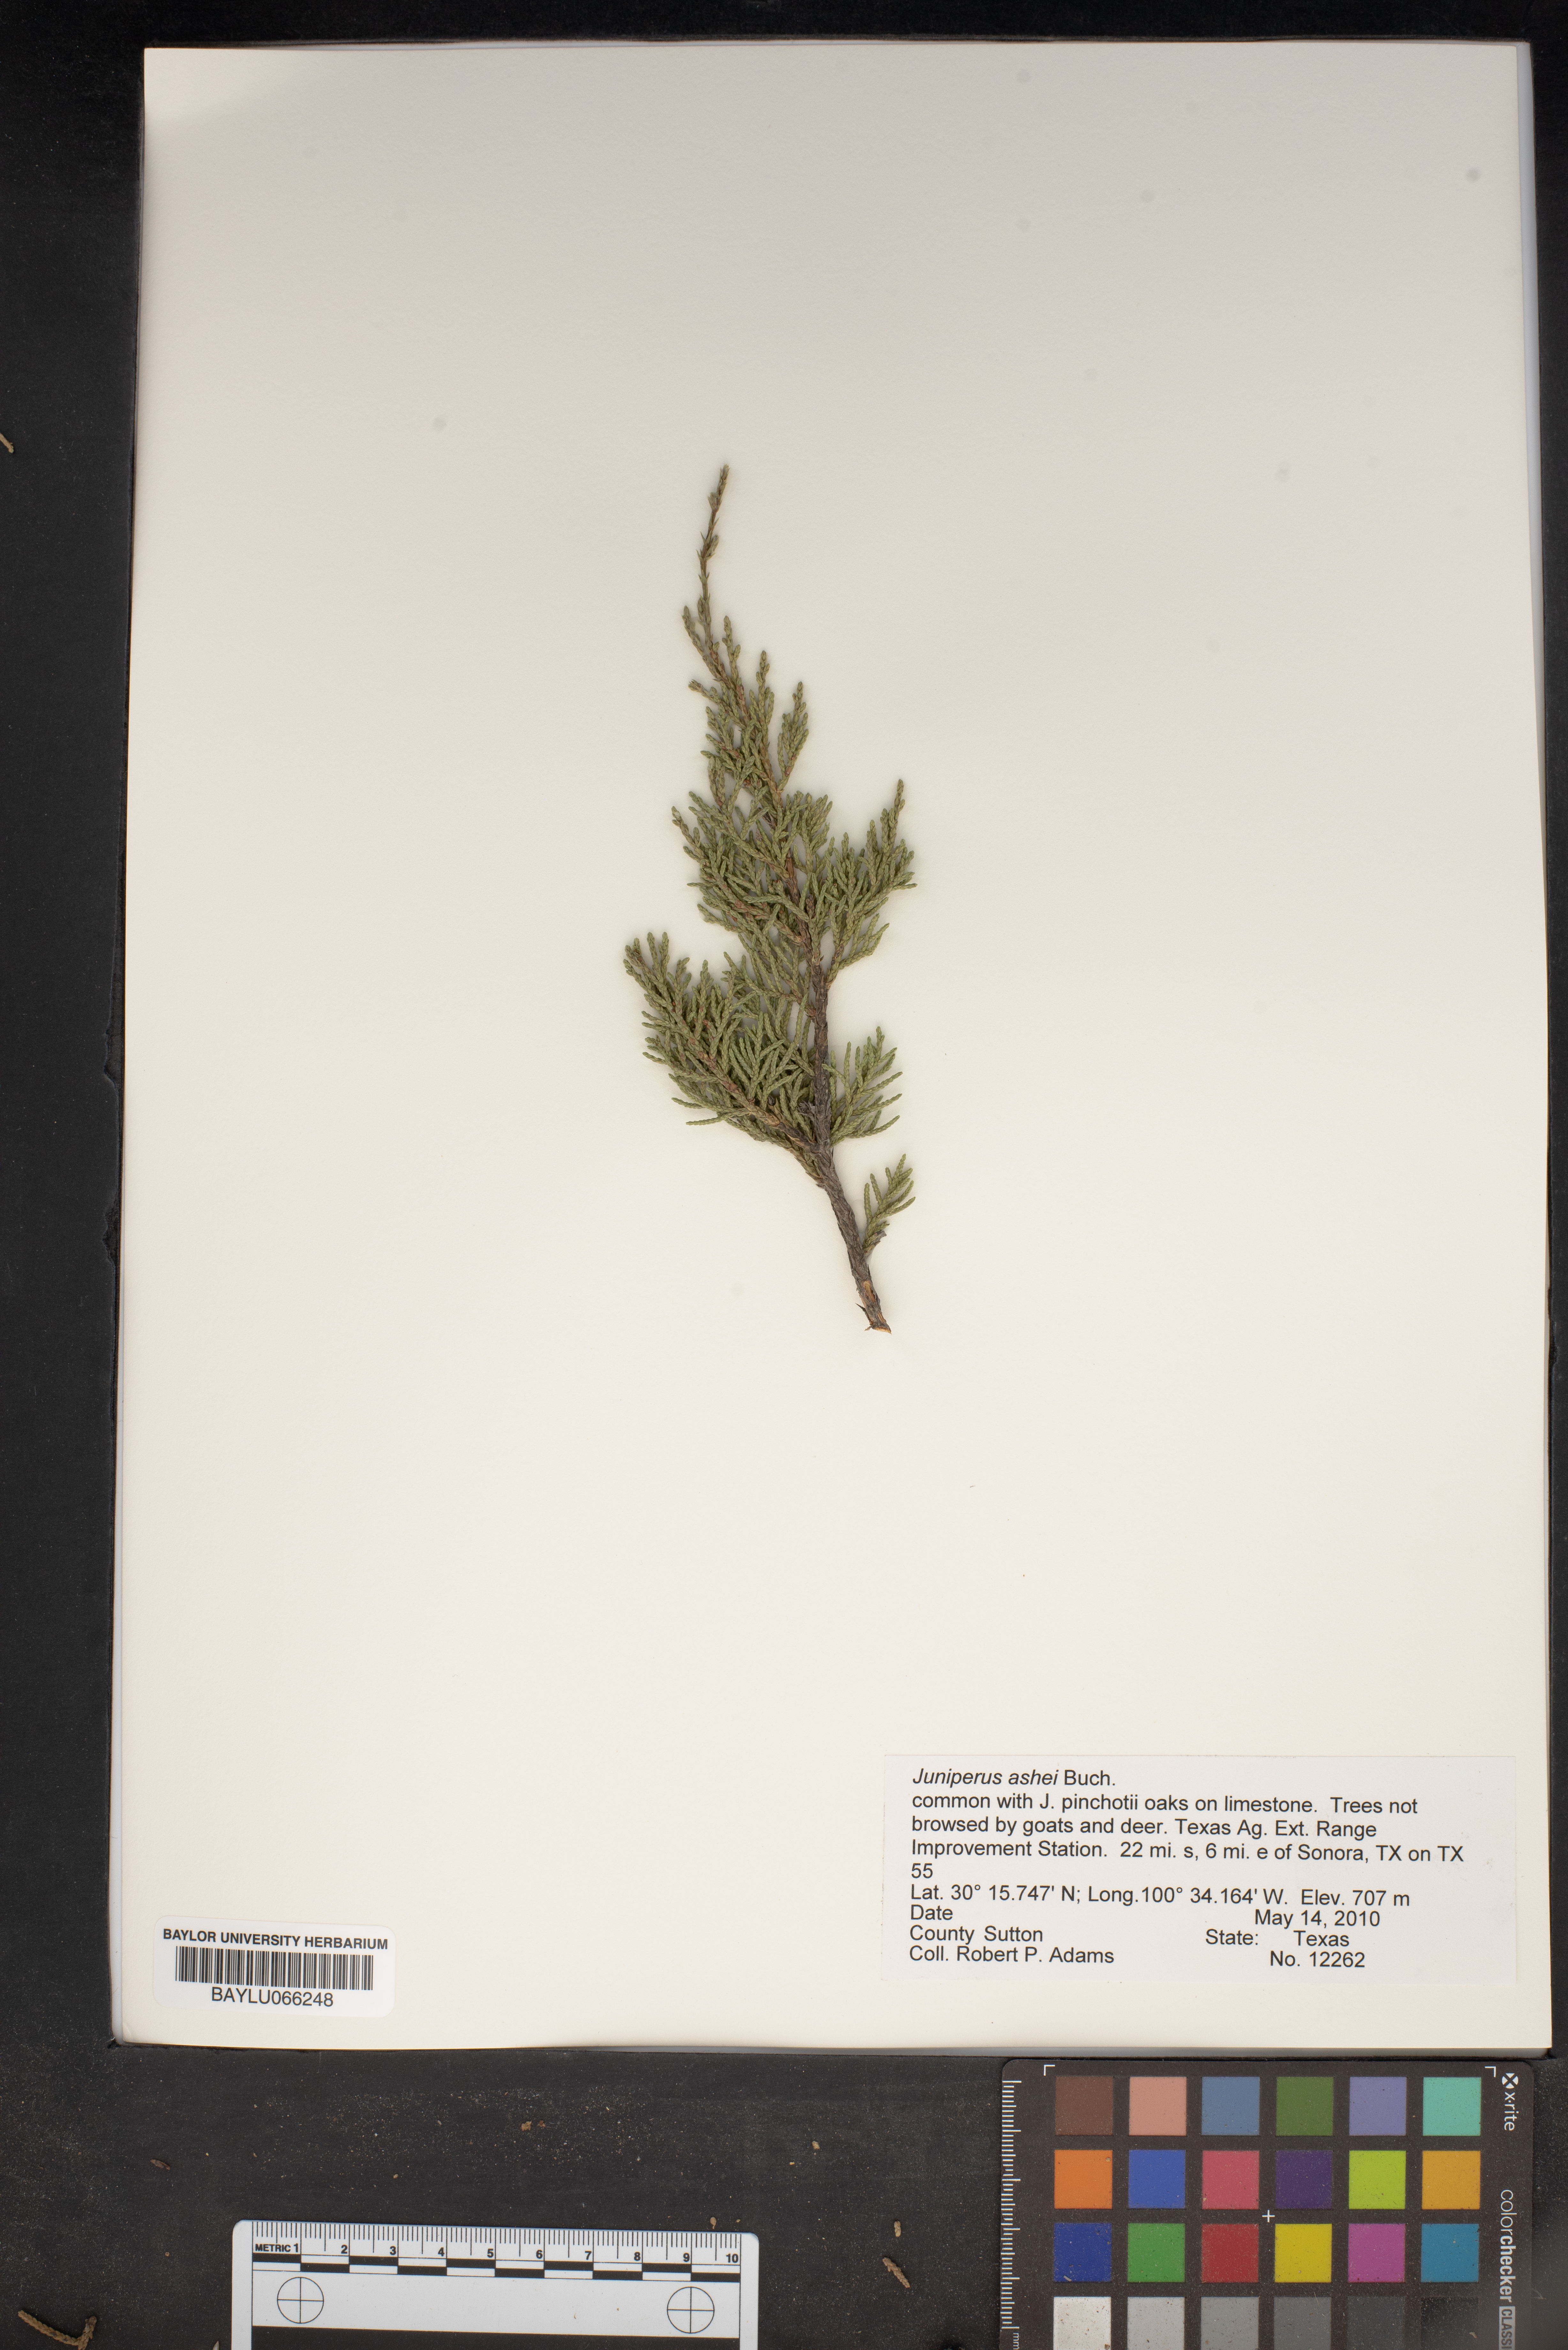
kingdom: Plantae
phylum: Tracheophyta
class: Pinopsida
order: Pinales
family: Cupressaceae
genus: Juniperus
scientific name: Juniperus ashei
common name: Mexican juniper
